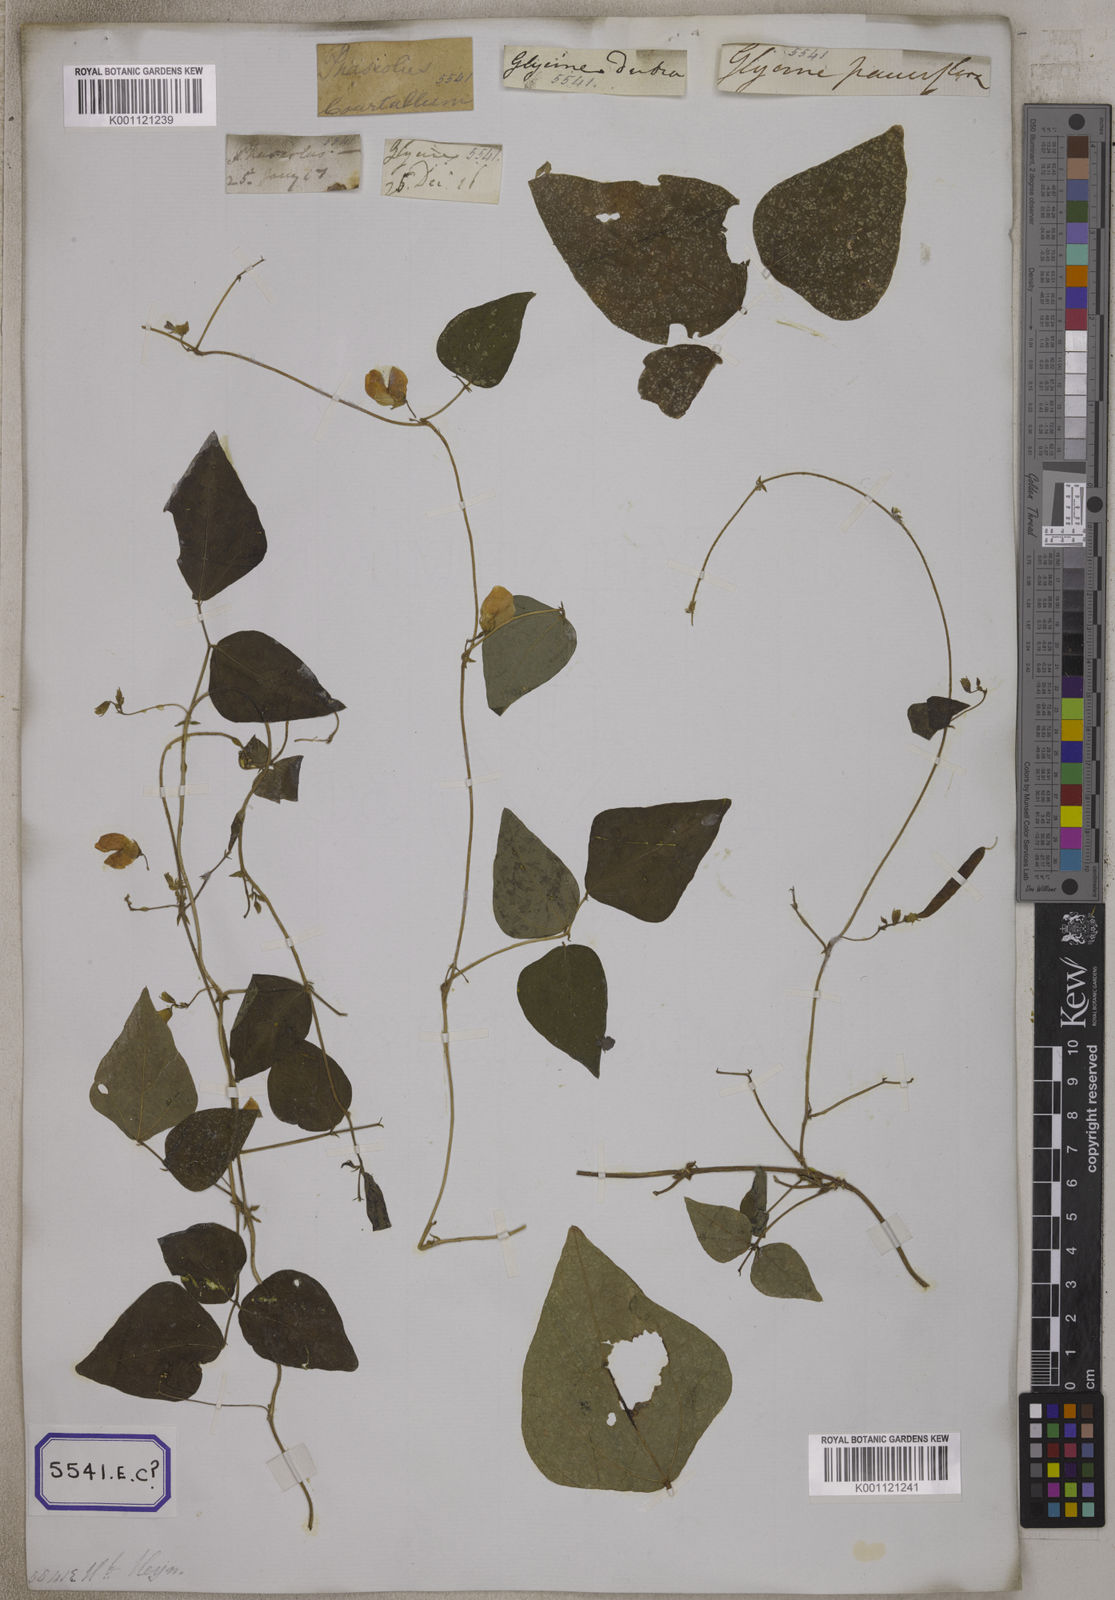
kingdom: Plantae
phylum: Tracheophyta
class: Magnoliopsida
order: Fabales
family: Fabaceae
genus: Dolichos
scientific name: Dolichos
